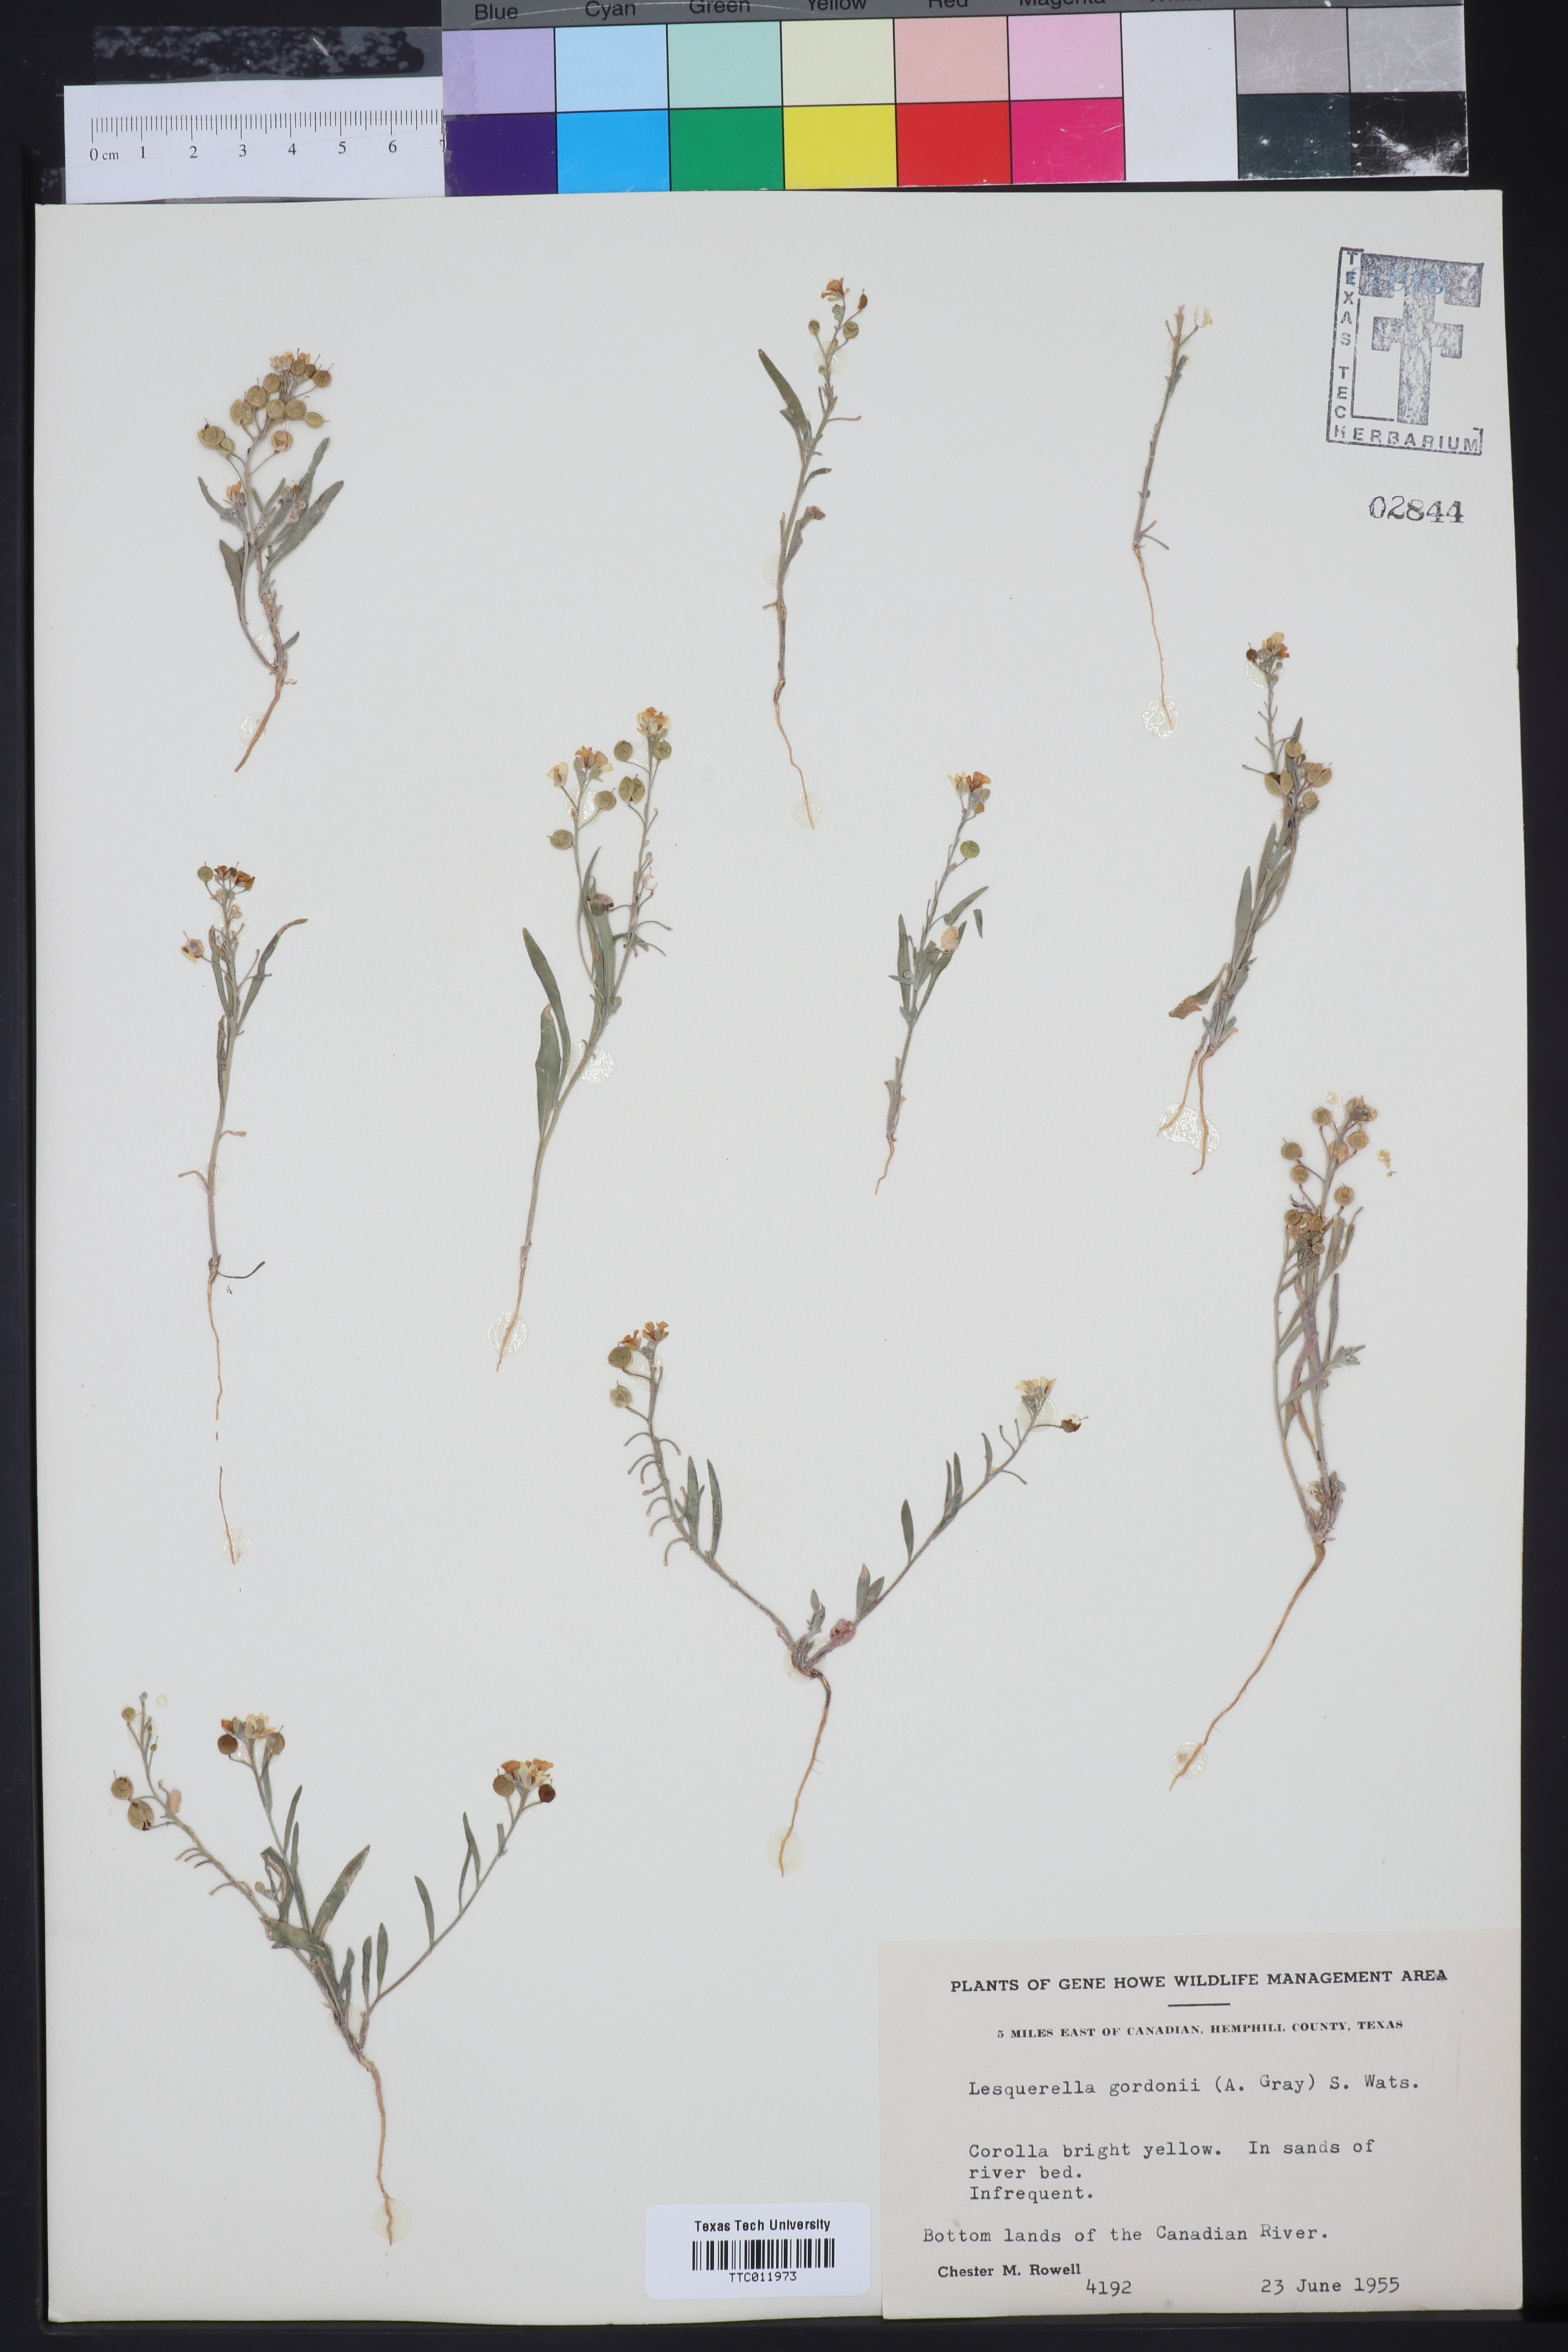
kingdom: Plantae
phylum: Tracheophyta
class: Magnoliopsida
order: Brassicales
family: Brassicaceae
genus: Physaria
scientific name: Physaria gordonii
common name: Gordon's bladderpod
